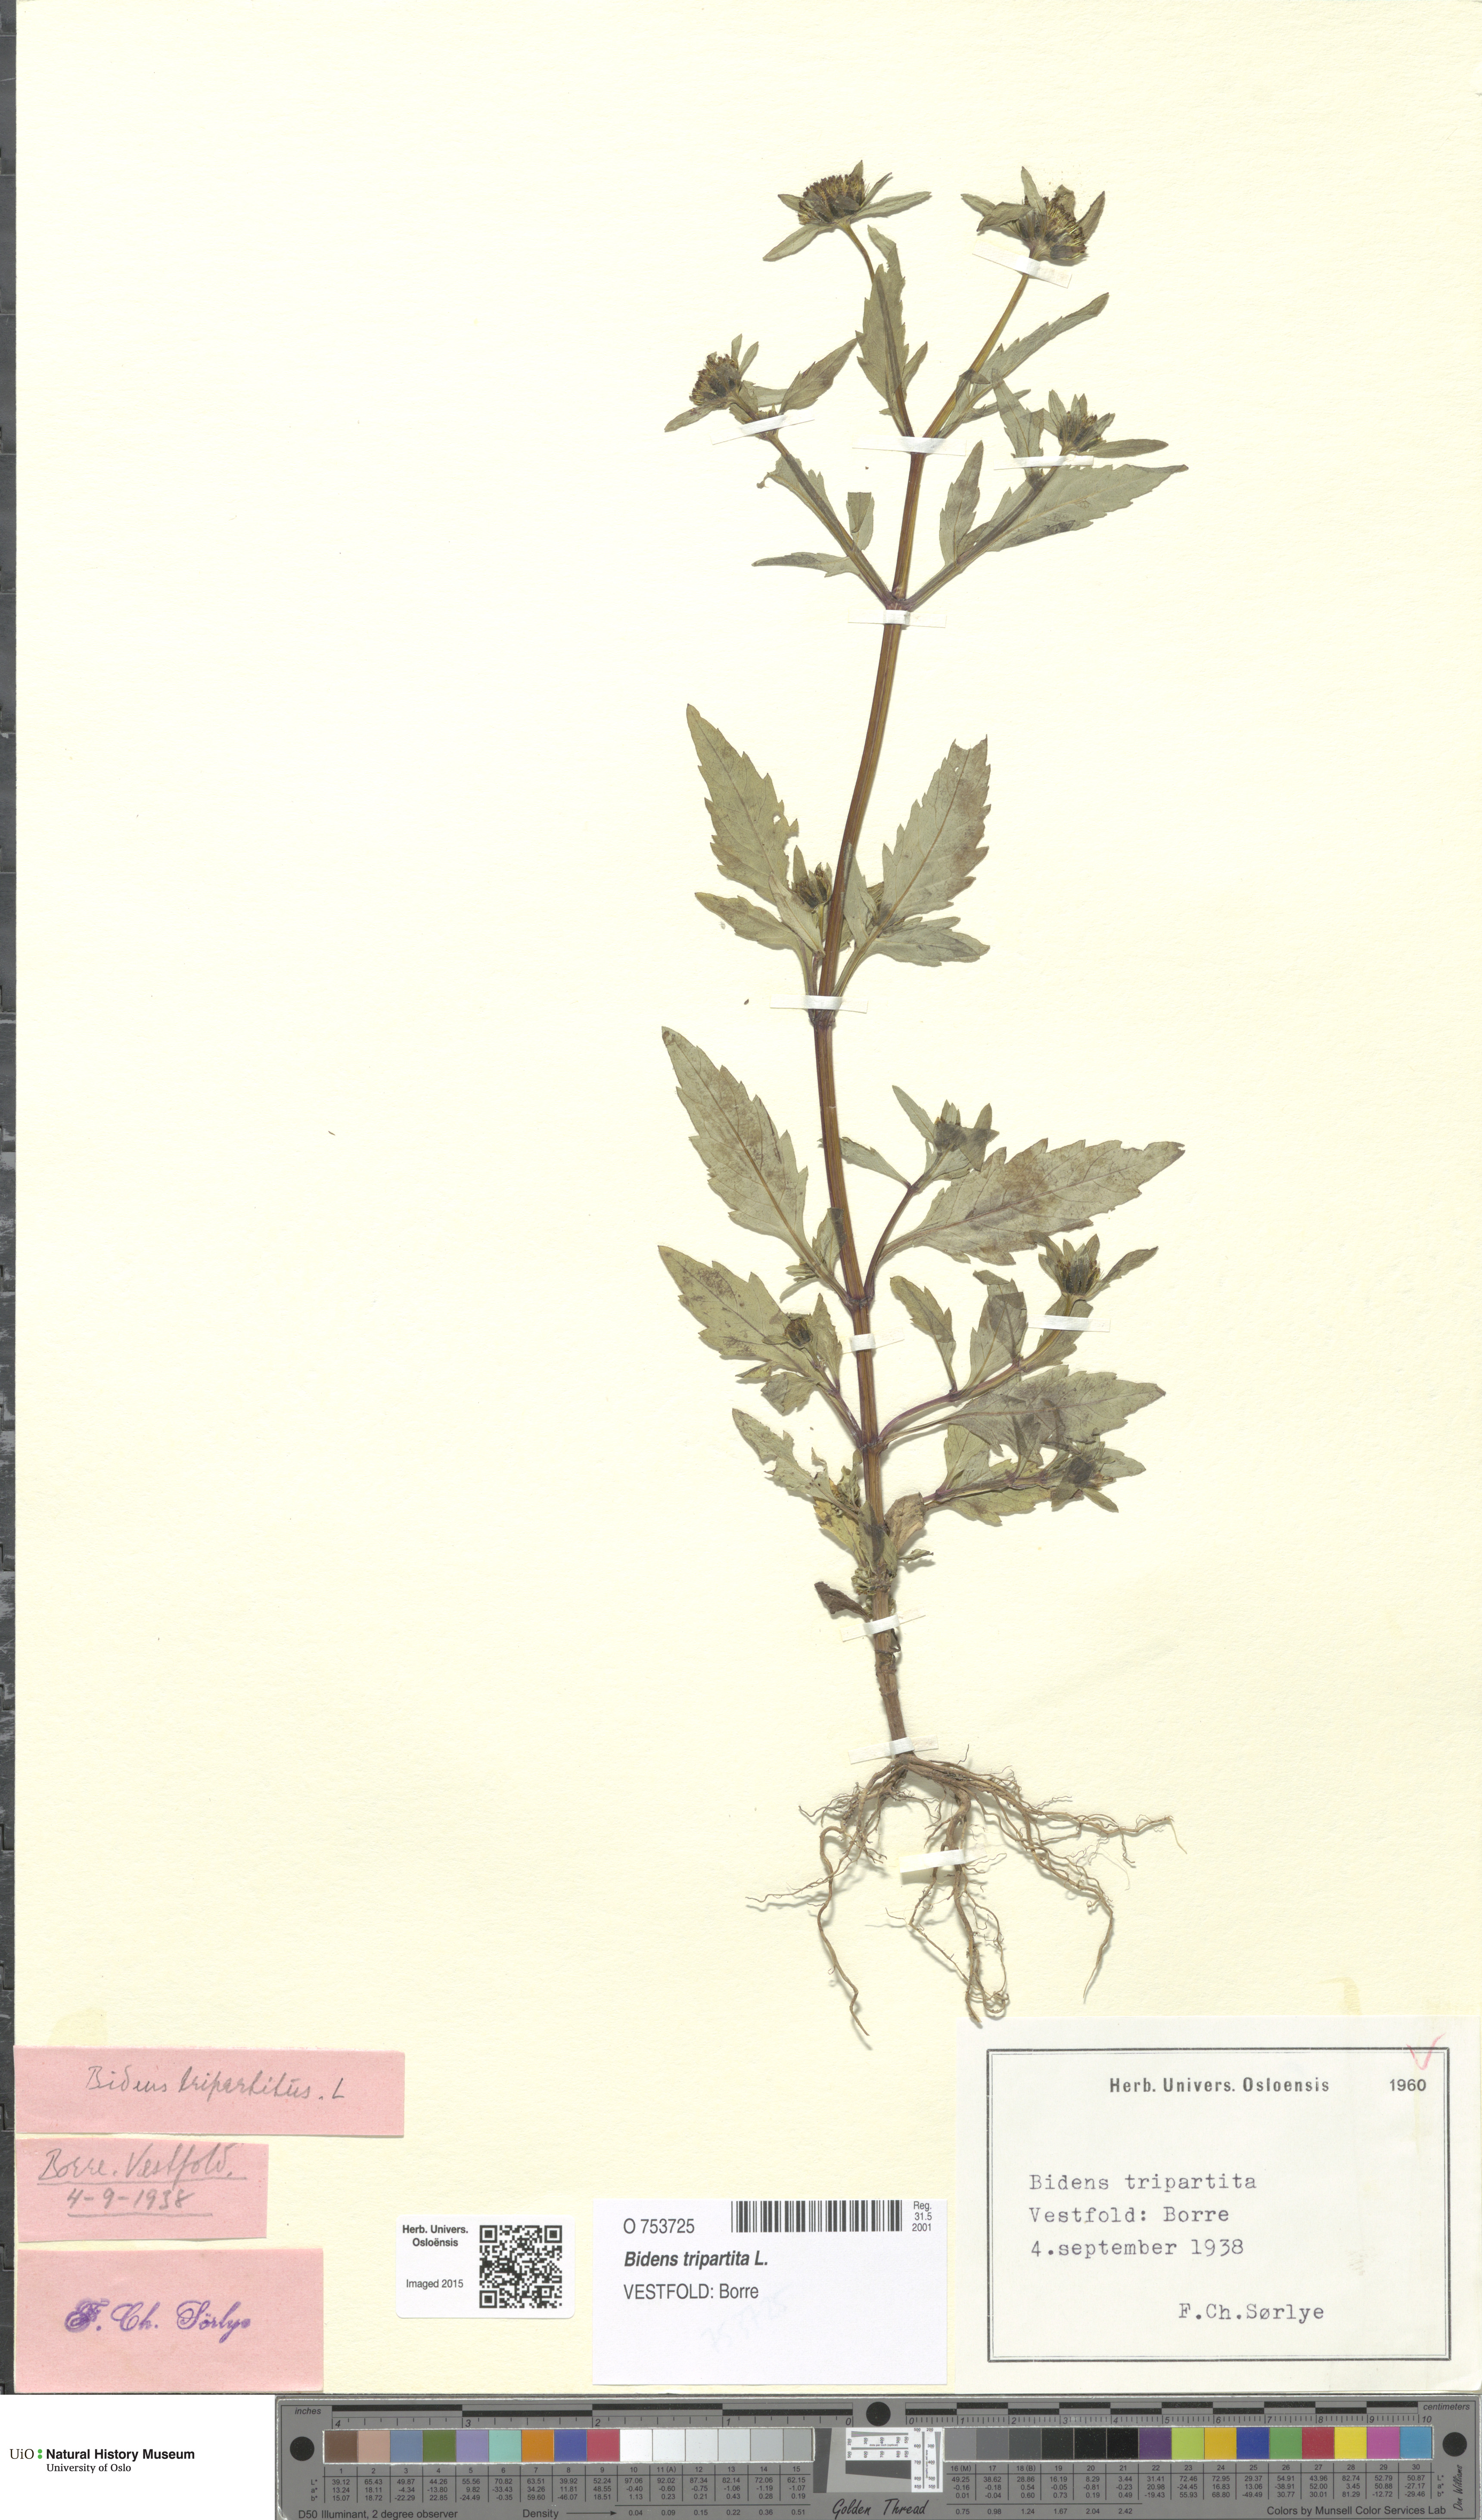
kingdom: Plantae
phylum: Tracheophyta
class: Magnoliopsida
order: Asterales
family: Asteraceae
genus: Bidens
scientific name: Bidens tripartita
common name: Trifid bur-marigold
